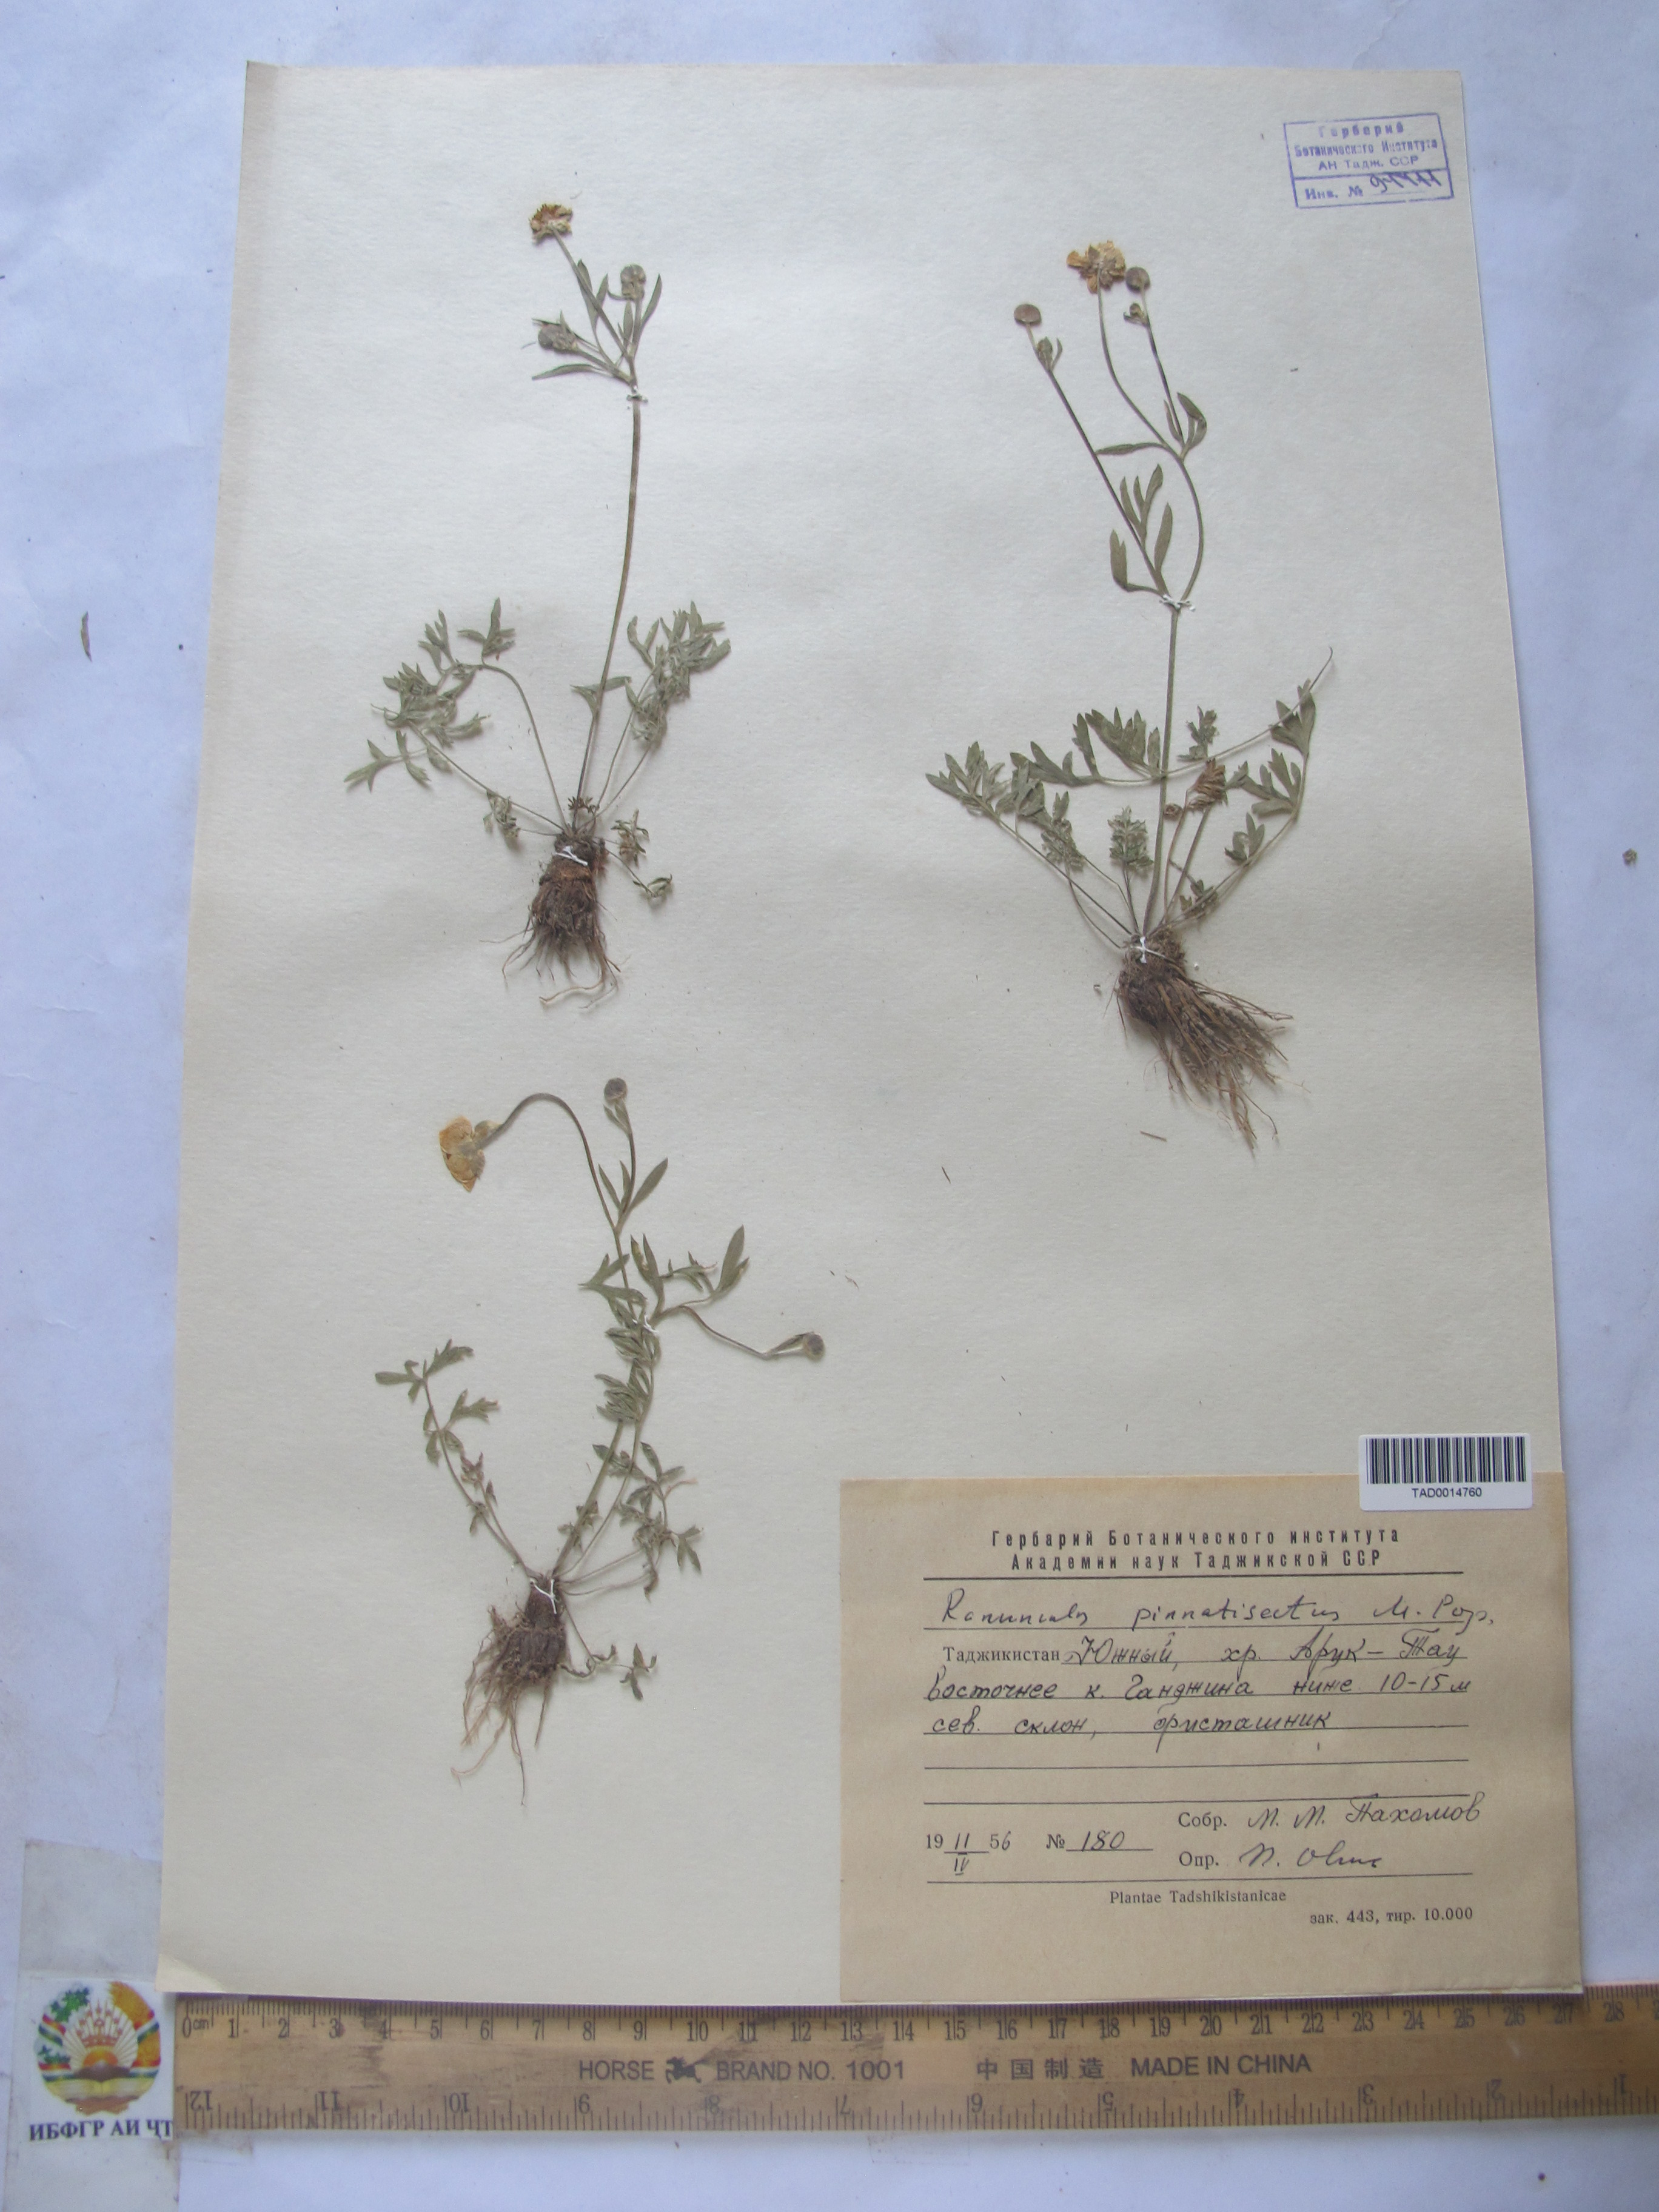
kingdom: Plantae
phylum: Tracheophyta
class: Magnoliopsida
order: Ranunculales
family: Ranunculaceae
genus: Ranunculus
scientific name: Ranunculus pinnatisectus
